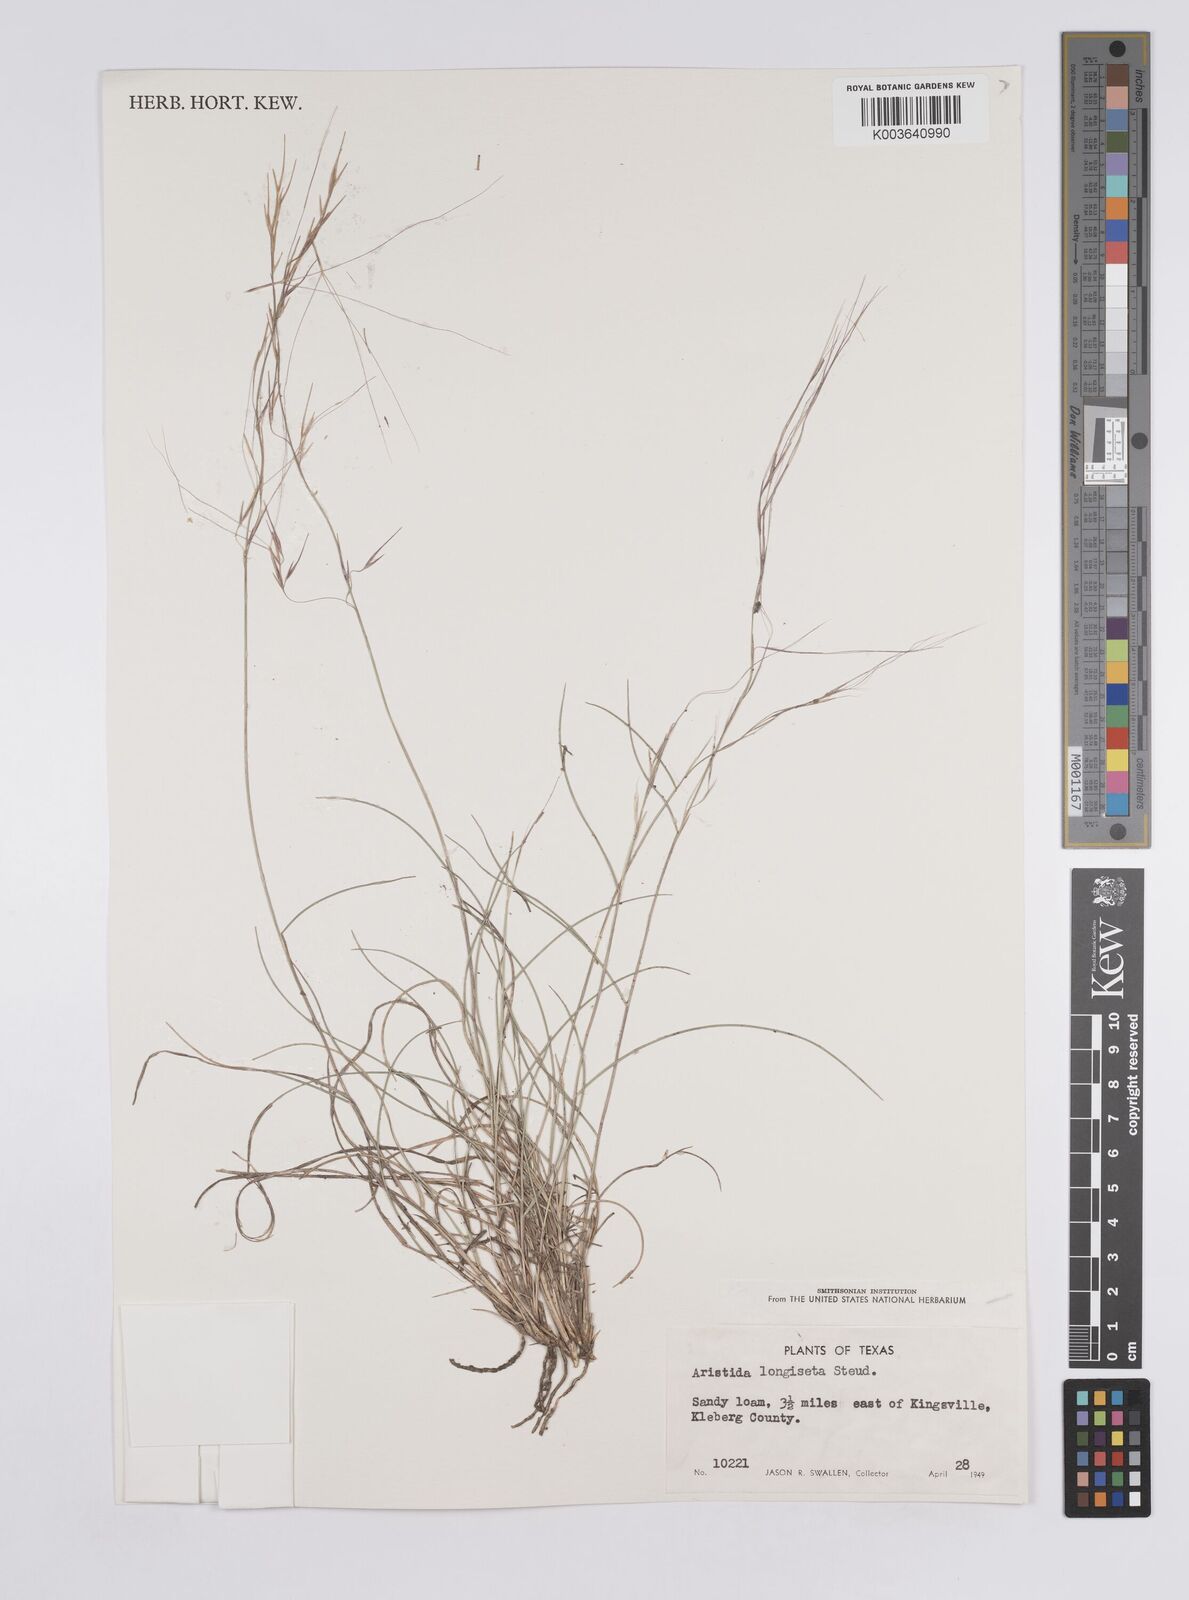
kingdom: Plantae
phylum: Tracheophyta
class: Liliopsida
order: Poales
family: Poaceae
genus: Aristida
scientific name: Aristida purpurea
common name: Purple threeawn
